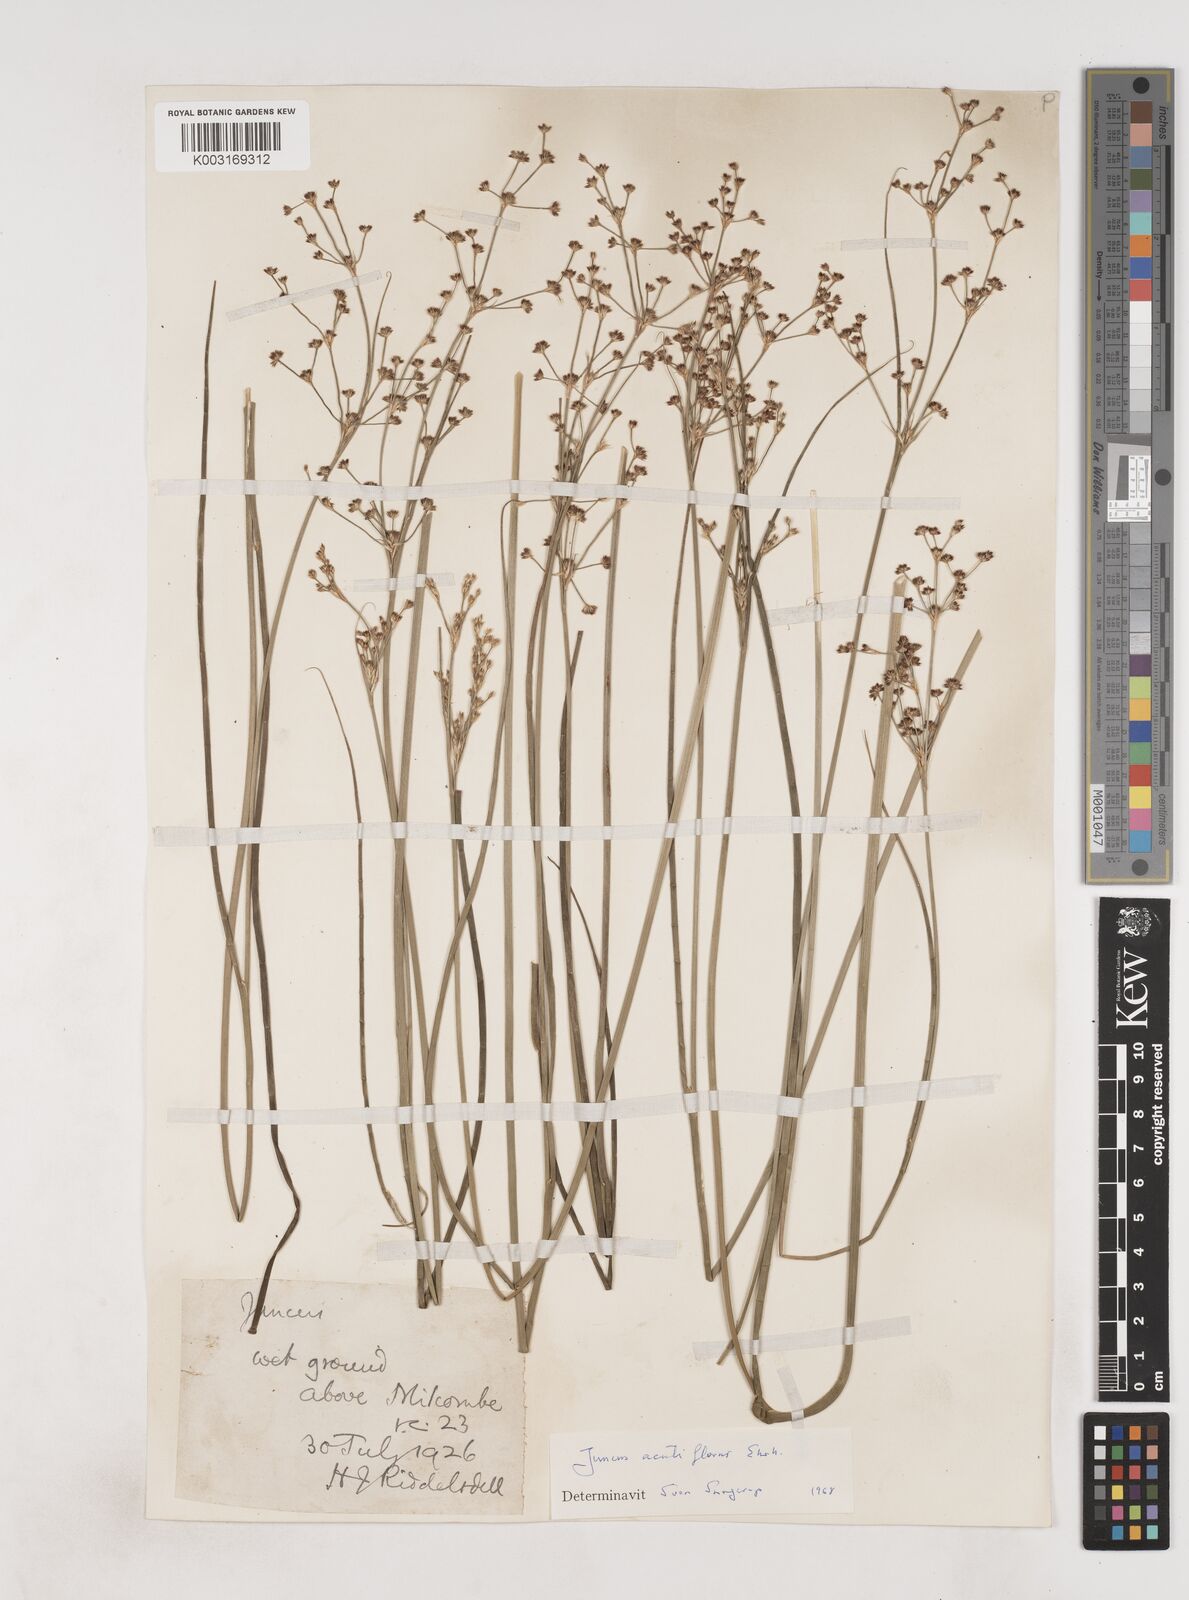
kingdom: Plantae
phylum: Tracheophyta
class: Liliopsida
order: Poales
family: Juncaceae
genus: Juncus
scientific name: Juncus acutiflorus
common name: Sharp-flowered rush
